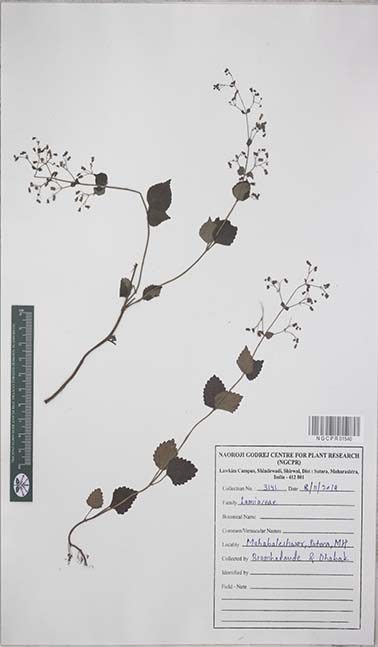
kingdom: Plantae
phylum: Tracheophyta
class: Magnoliopsida
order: Lamiales
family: Lamiaceae
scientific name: Lamiaceae
